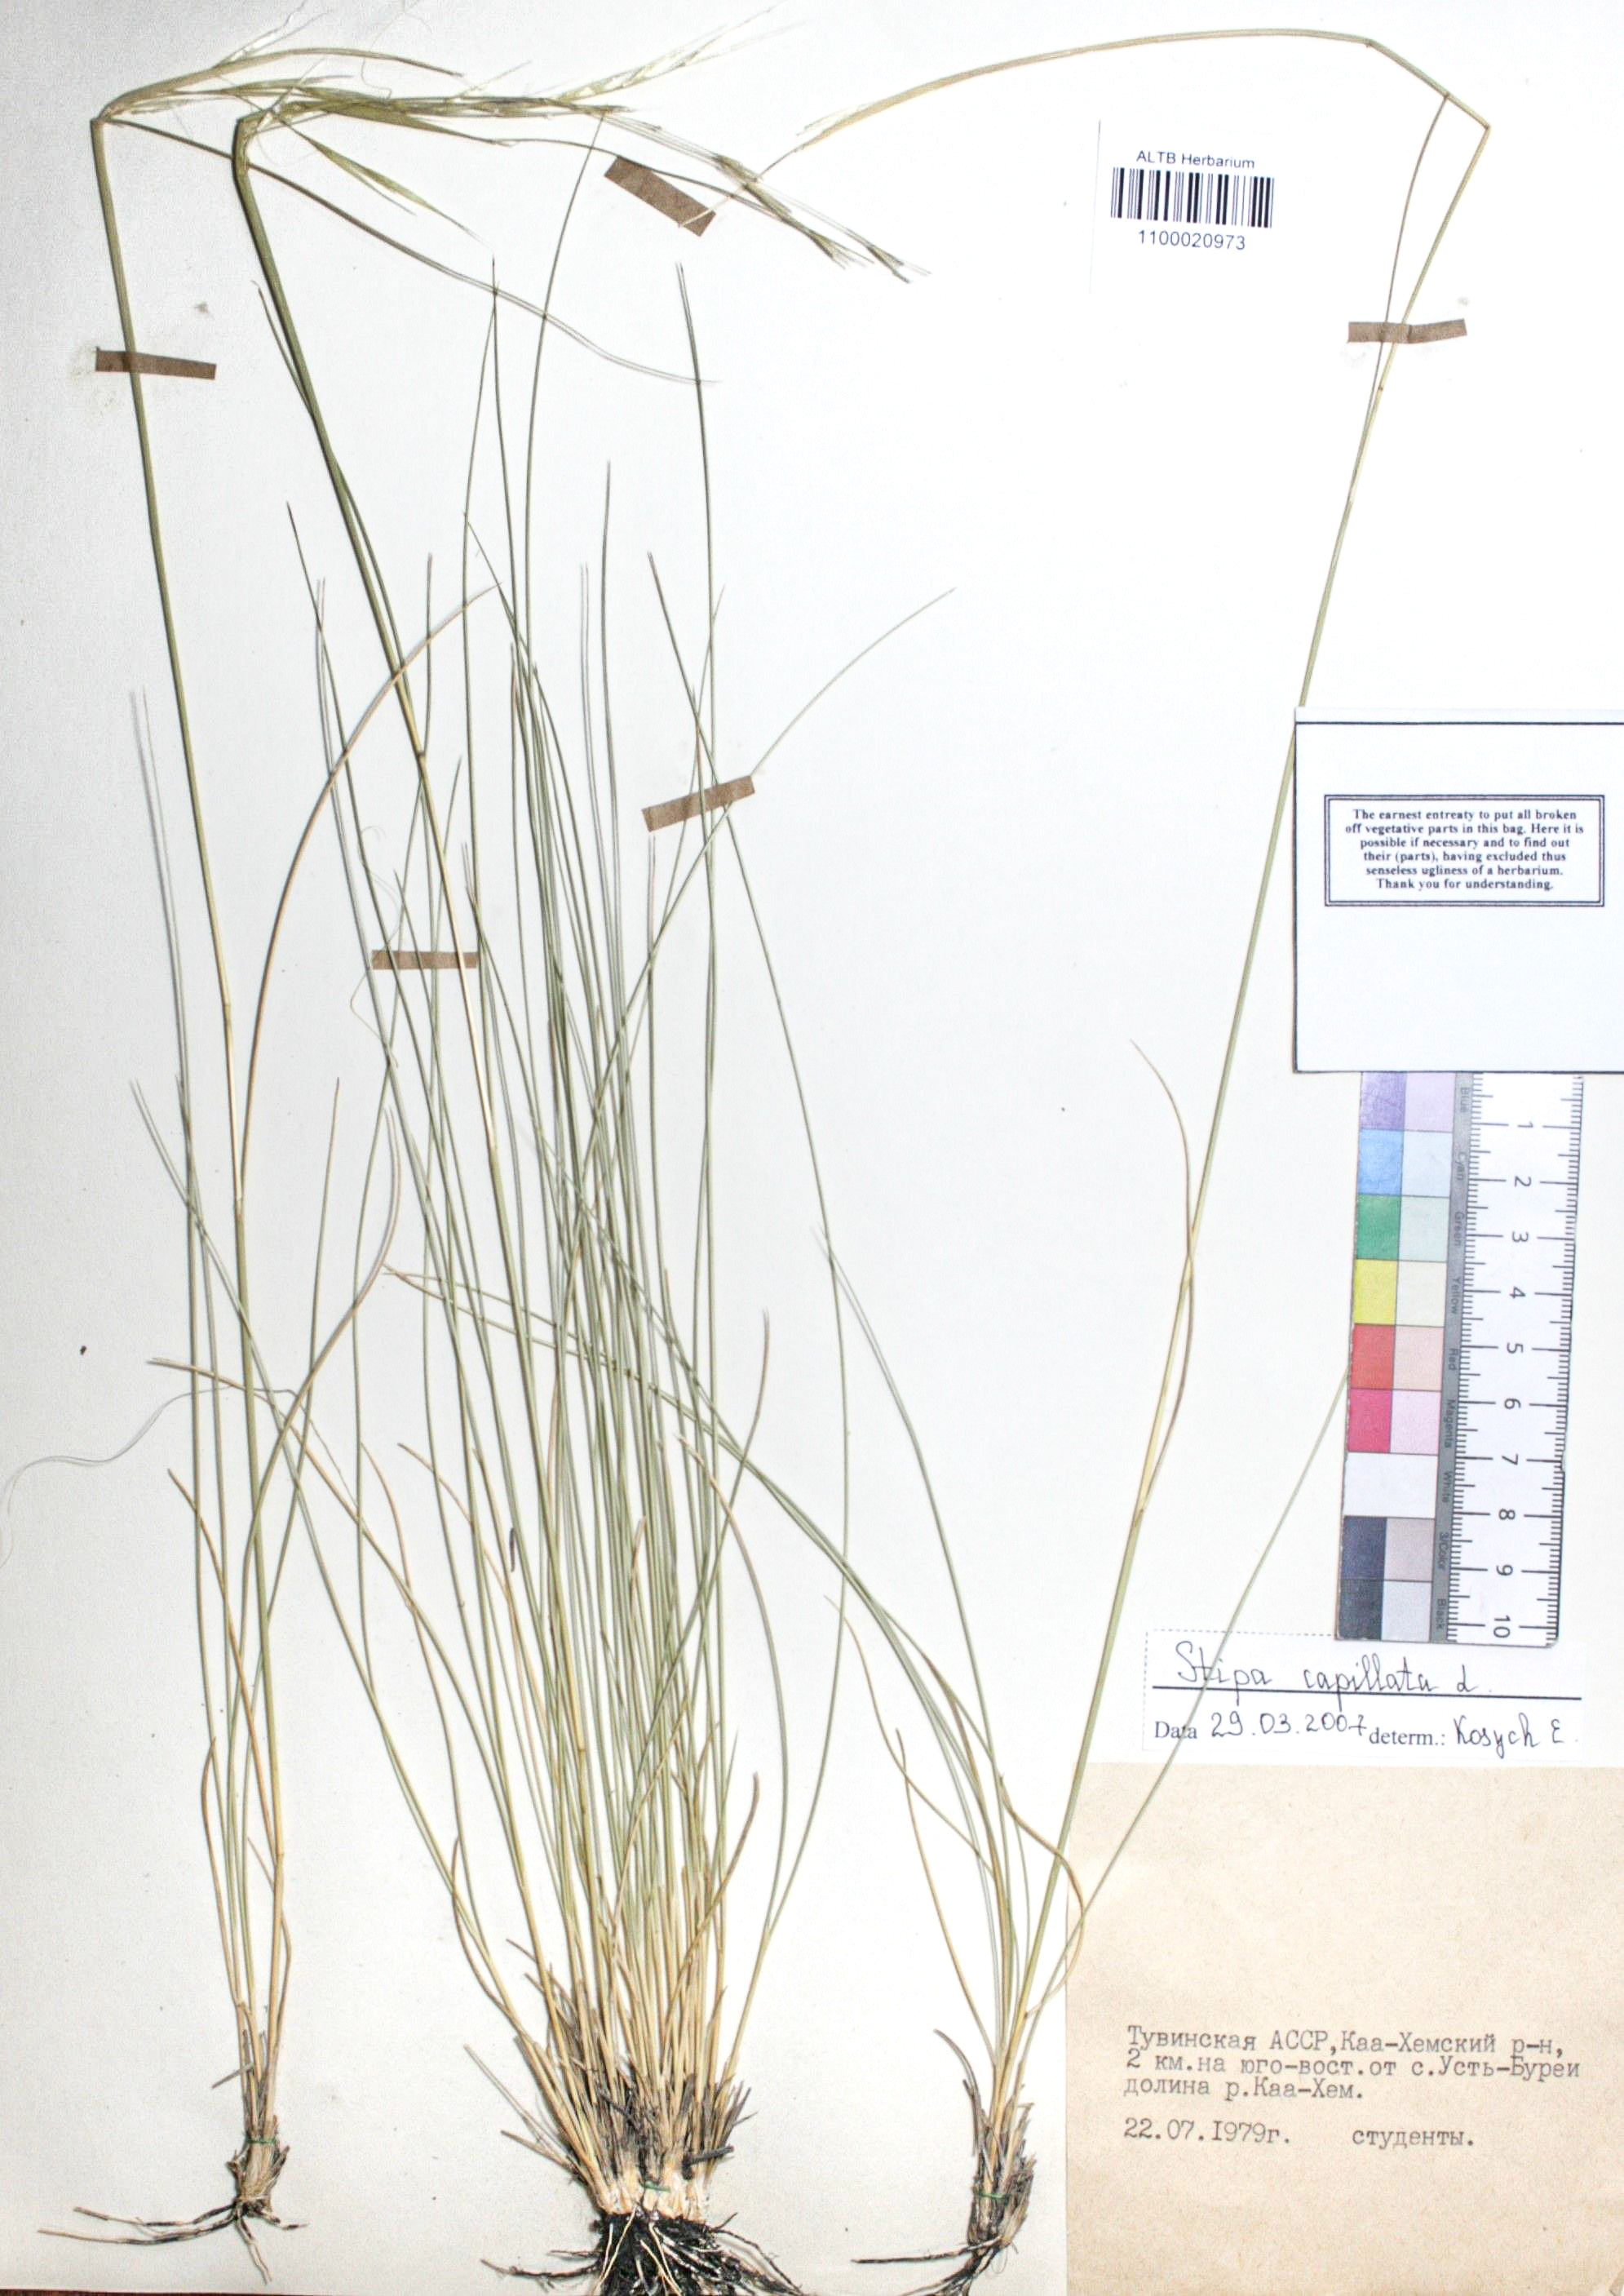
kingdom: Plantae
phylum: Tracheophyta
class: Liliopsida
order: Poales
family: Poaceae
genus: Stipa
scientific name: Stipa capillata
